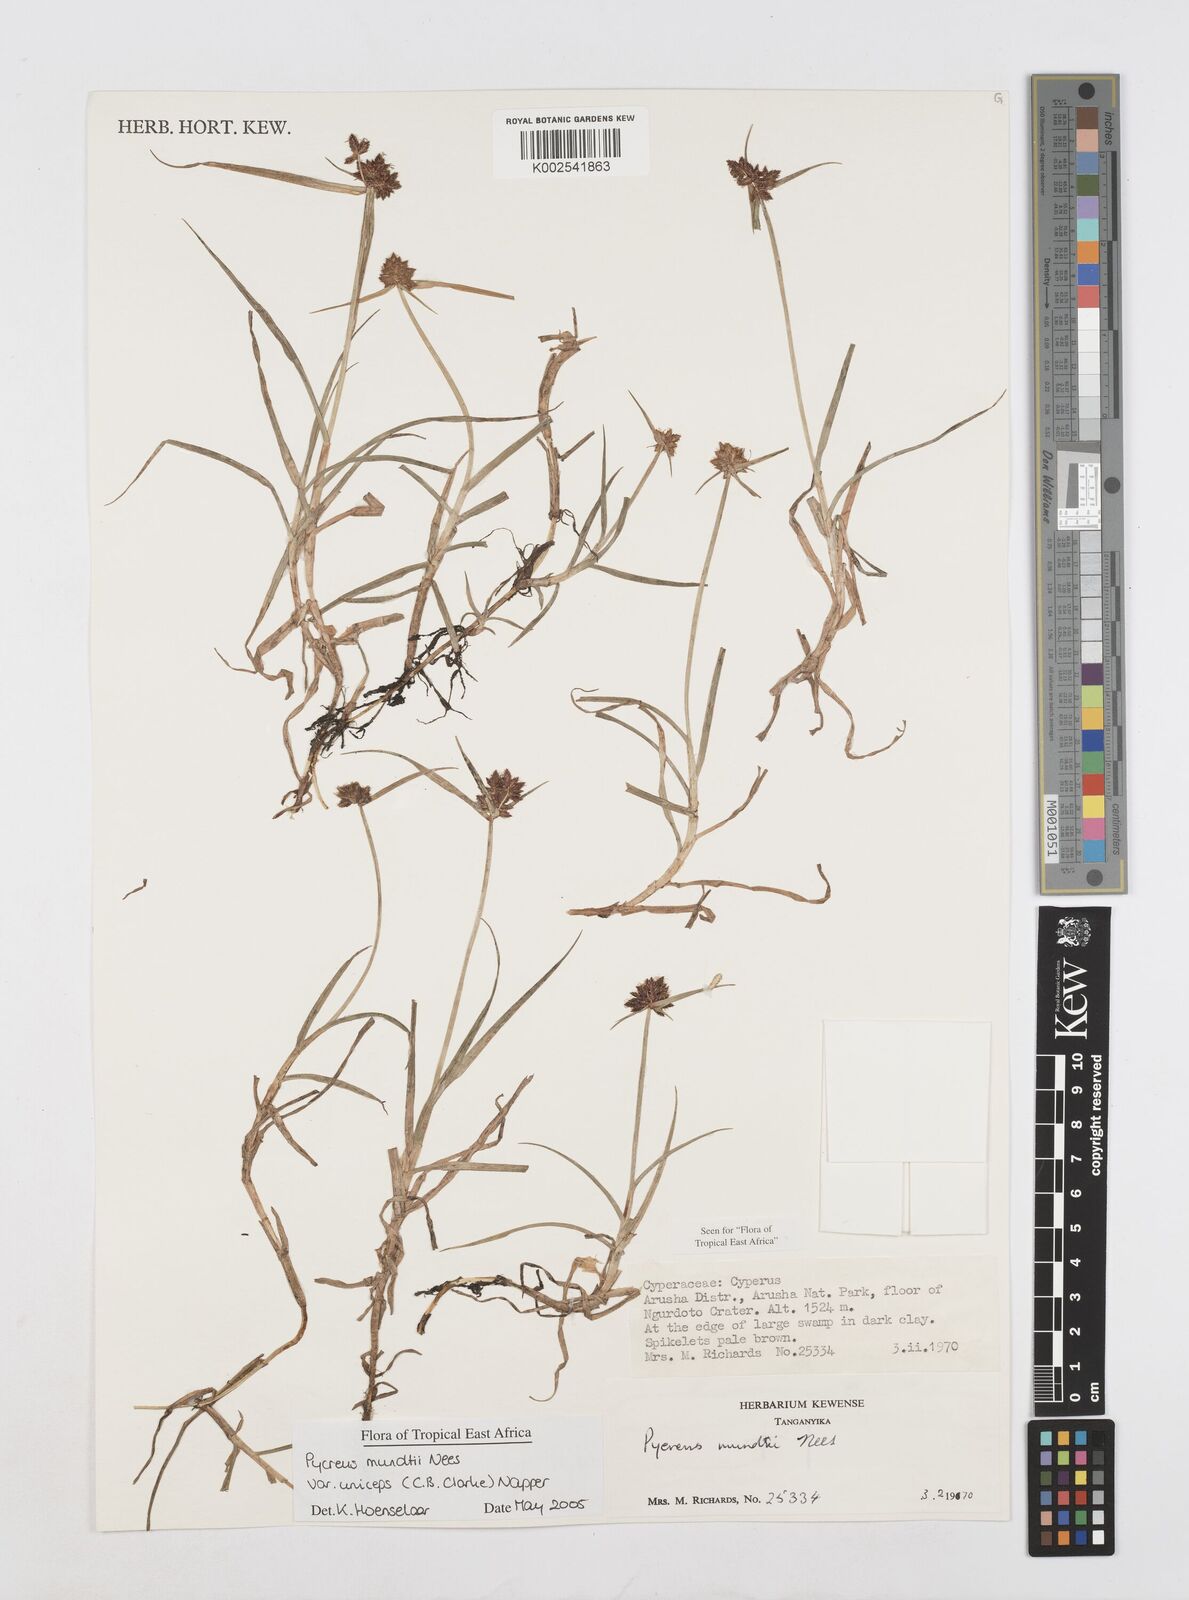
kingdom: Plantae
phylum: Tracheophyta
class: Liliopsida
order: Poales
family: Cyperaceae
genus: Cyperus
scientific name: Cyperus mundii
